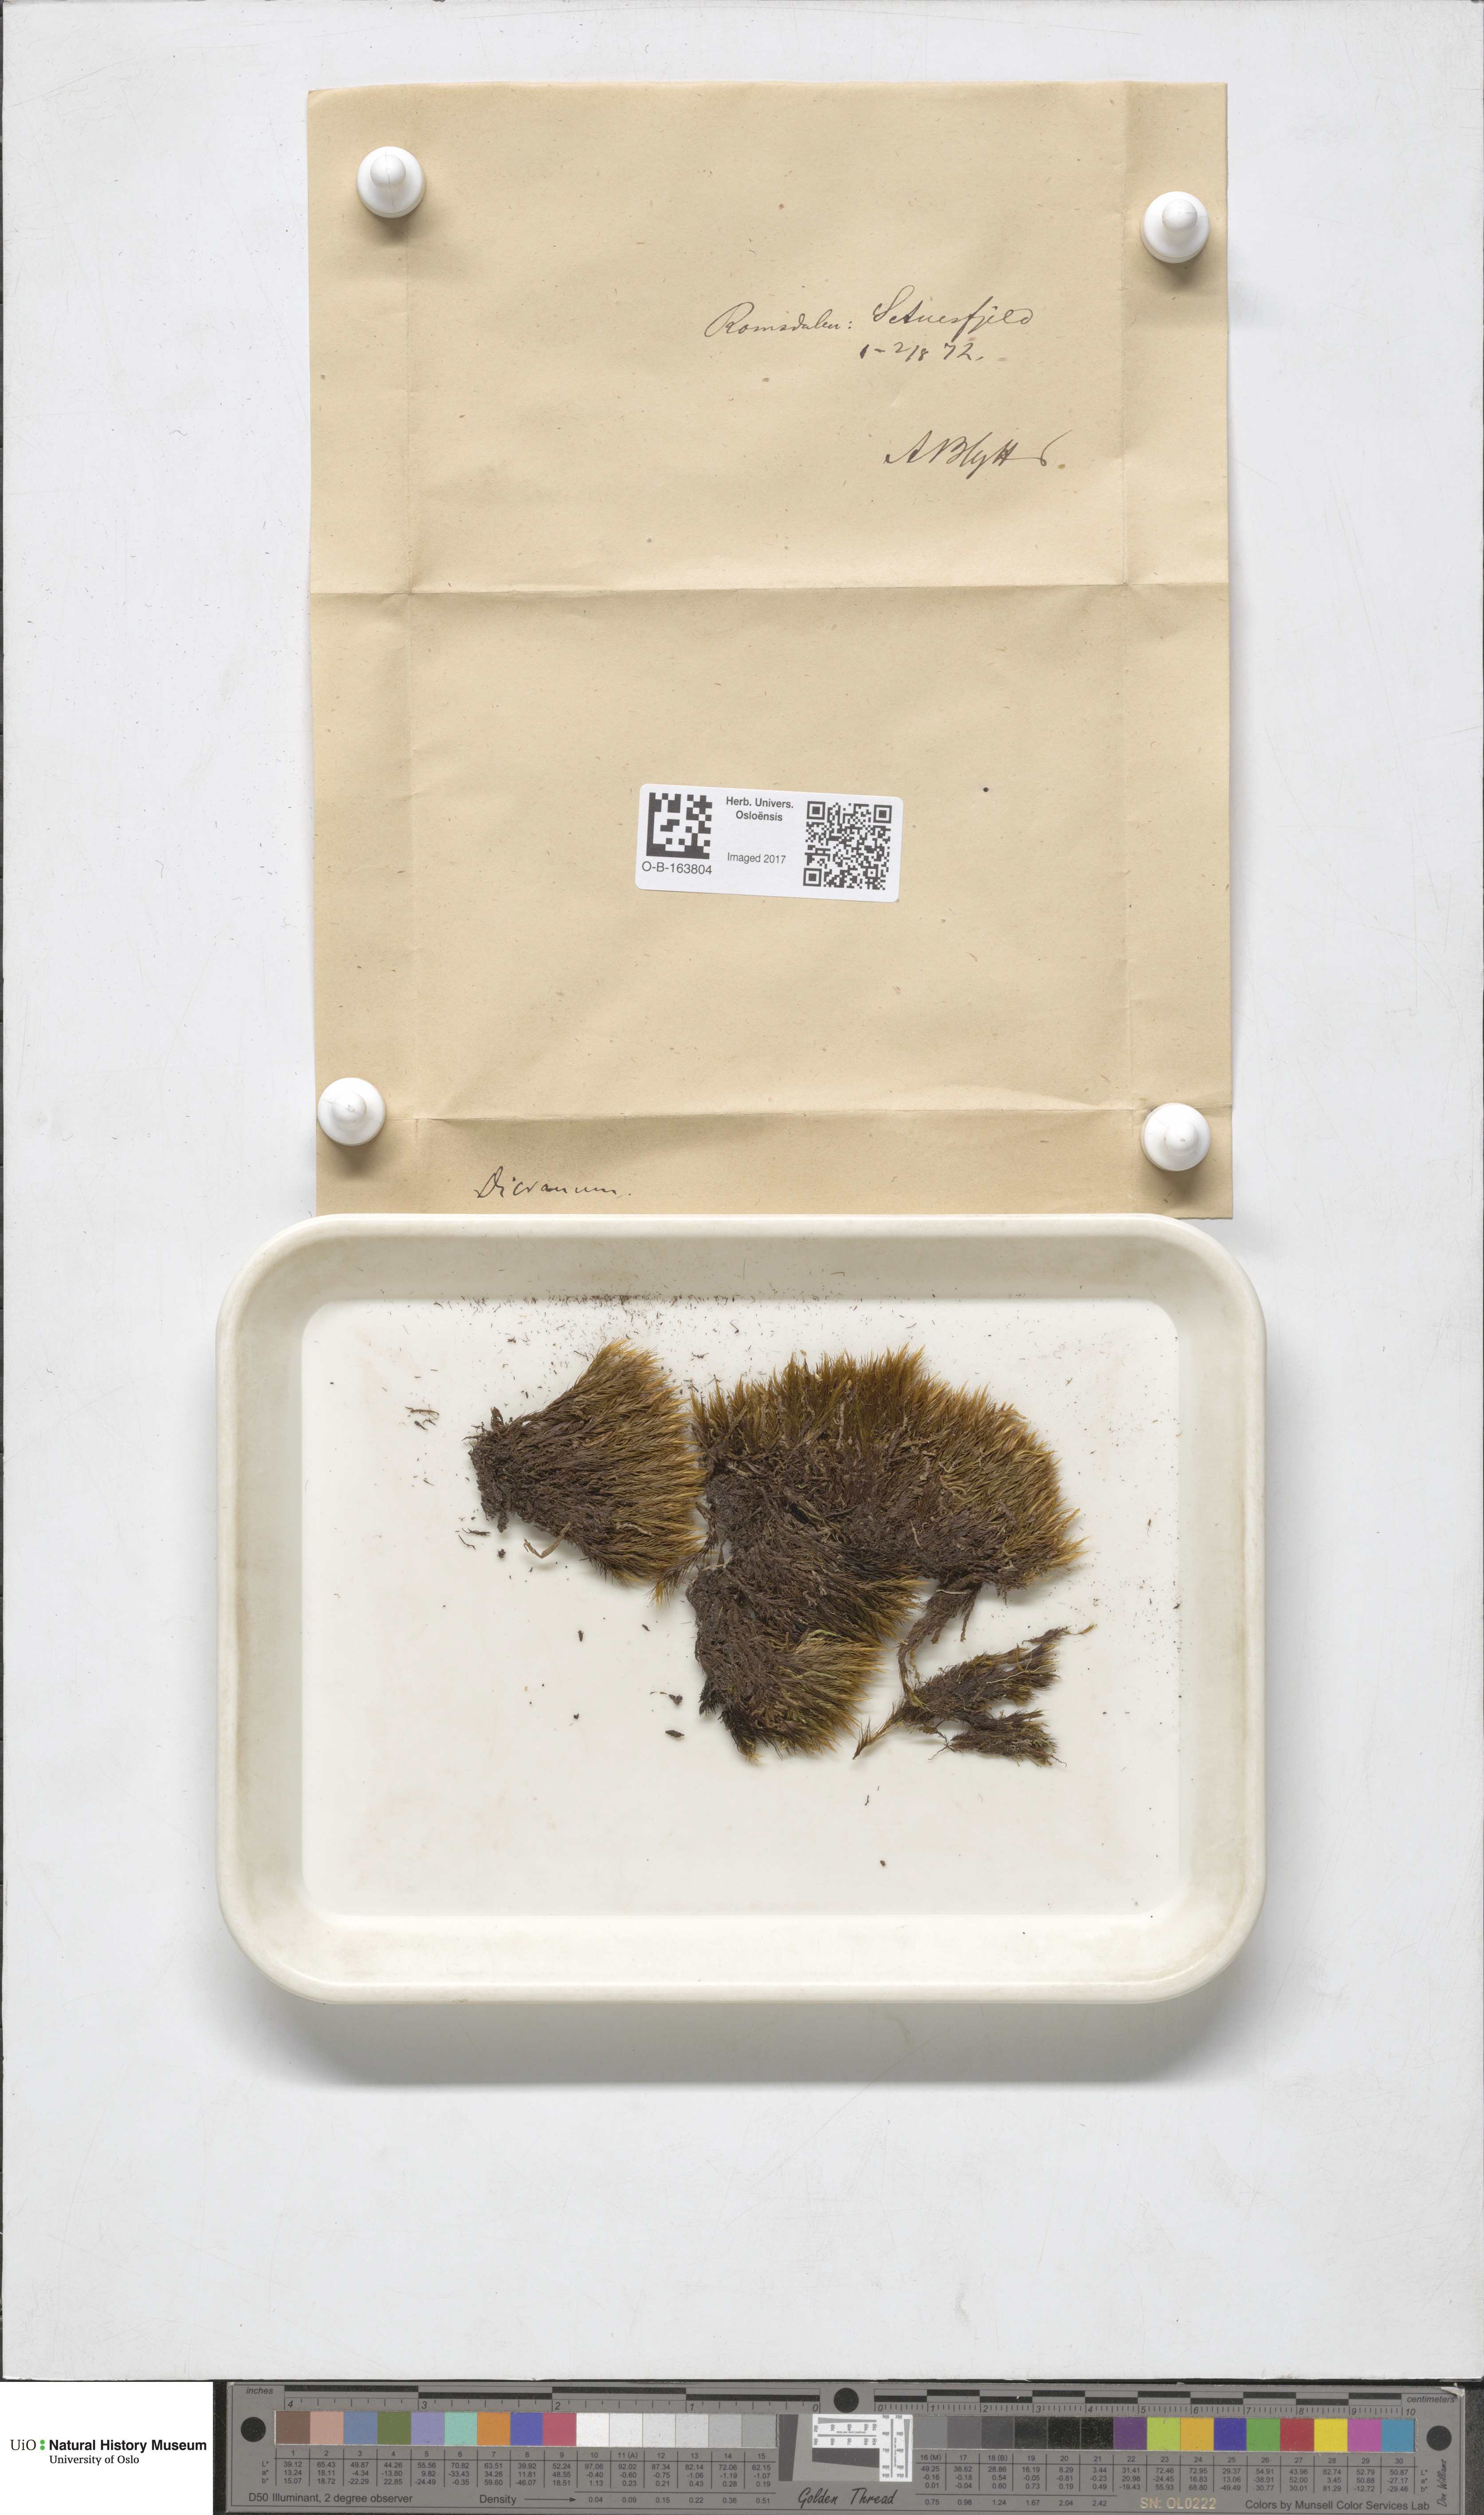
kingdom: Plantae
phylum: Bryophyta
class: Bryopsida
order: Dicranales
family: Dicranaceae
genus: Dicranum
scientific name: Dicranum scoparium
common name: Broom fork-moss
